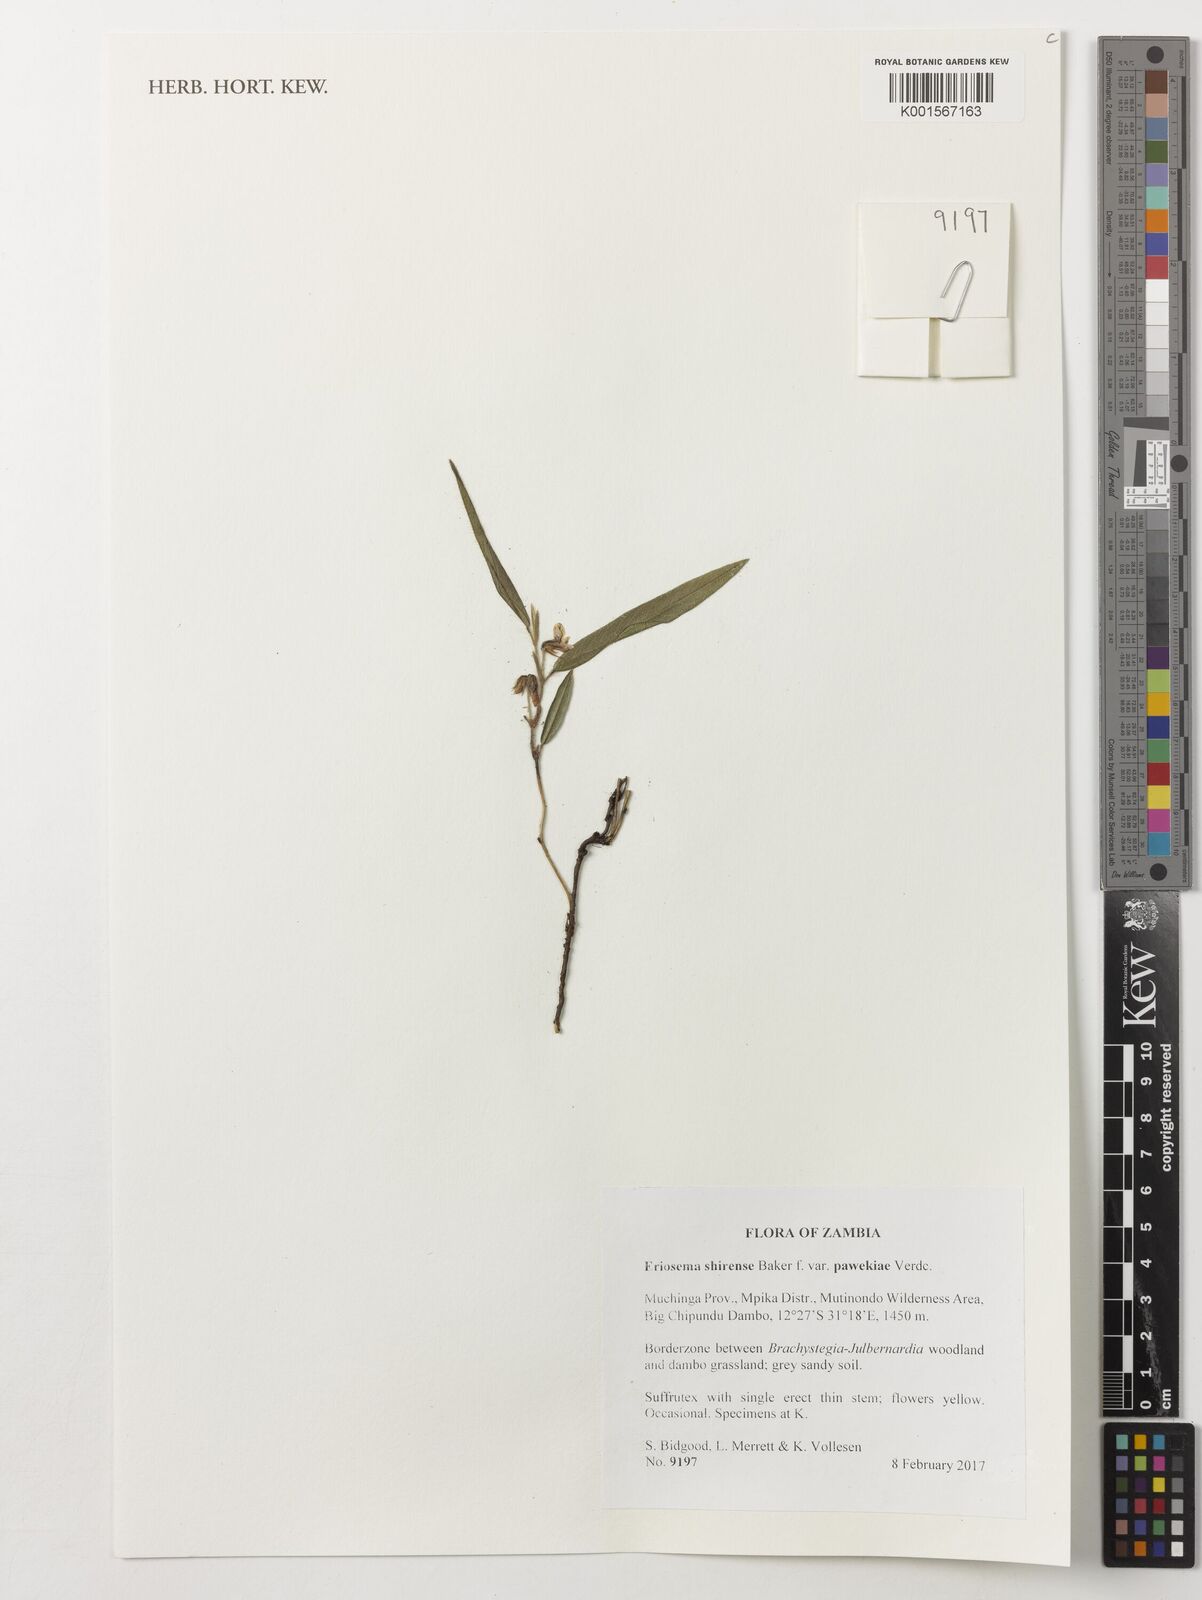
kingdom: Plantae
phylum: Tracheophyta
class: Magnoliopsida
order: Fabales
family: Fabaceae
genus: Eriosema
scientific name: Eriosema shirense
